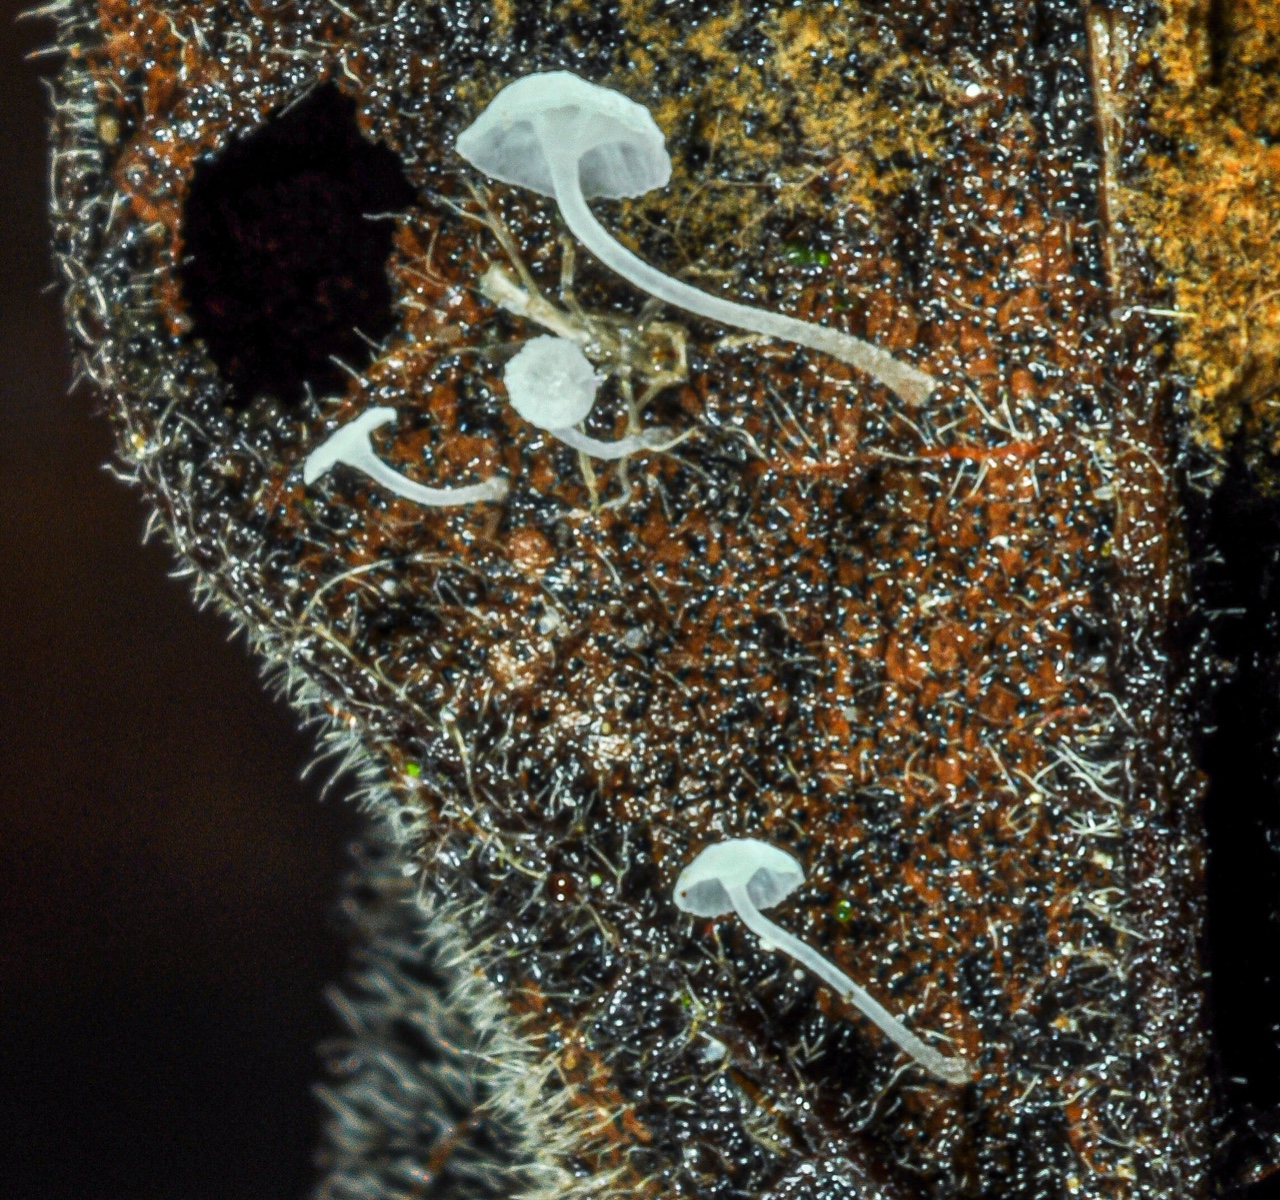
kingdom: Fungi
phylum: Basidiomycota
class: Agaricomycetes
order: Agaricales
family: Mycenaceae
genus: Hemimycena
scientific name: Hemimycena
